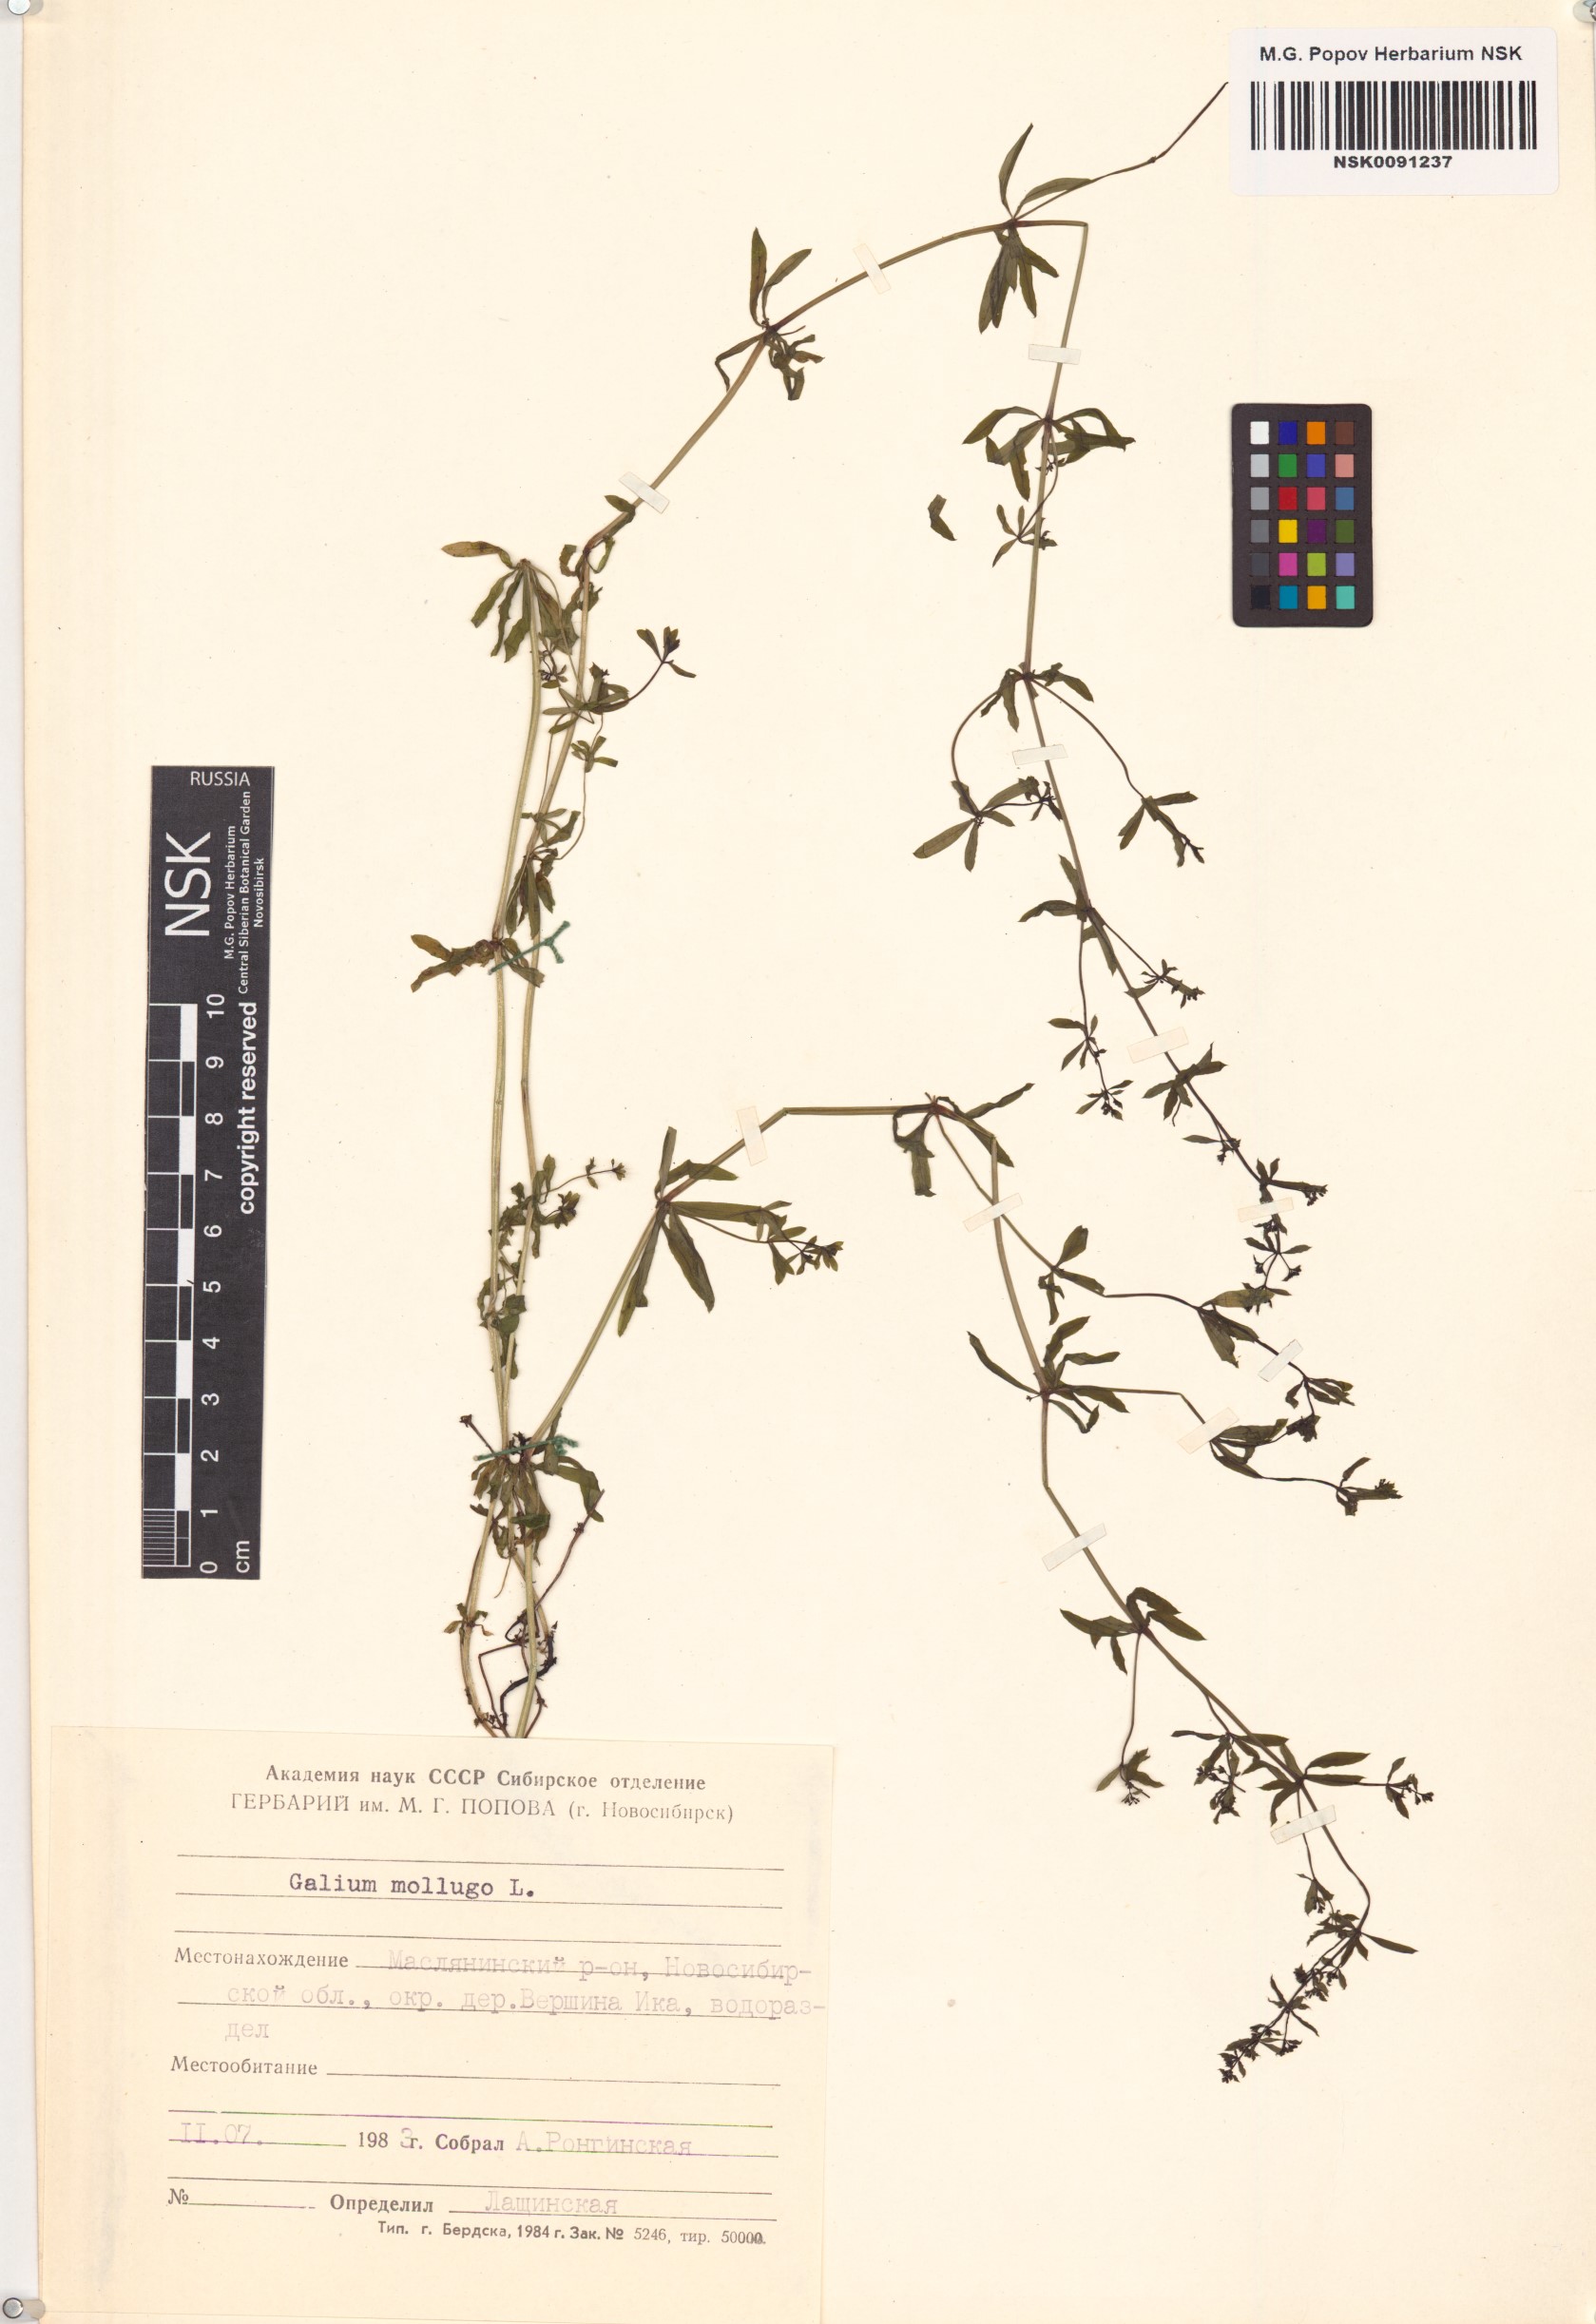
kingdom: Plantae
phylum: Tracheophyta
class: Magnoliopsida
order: Gentianales
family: Rubiaceae
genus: Galium
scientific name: Galium mollugo
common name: Hedge bedstraw
